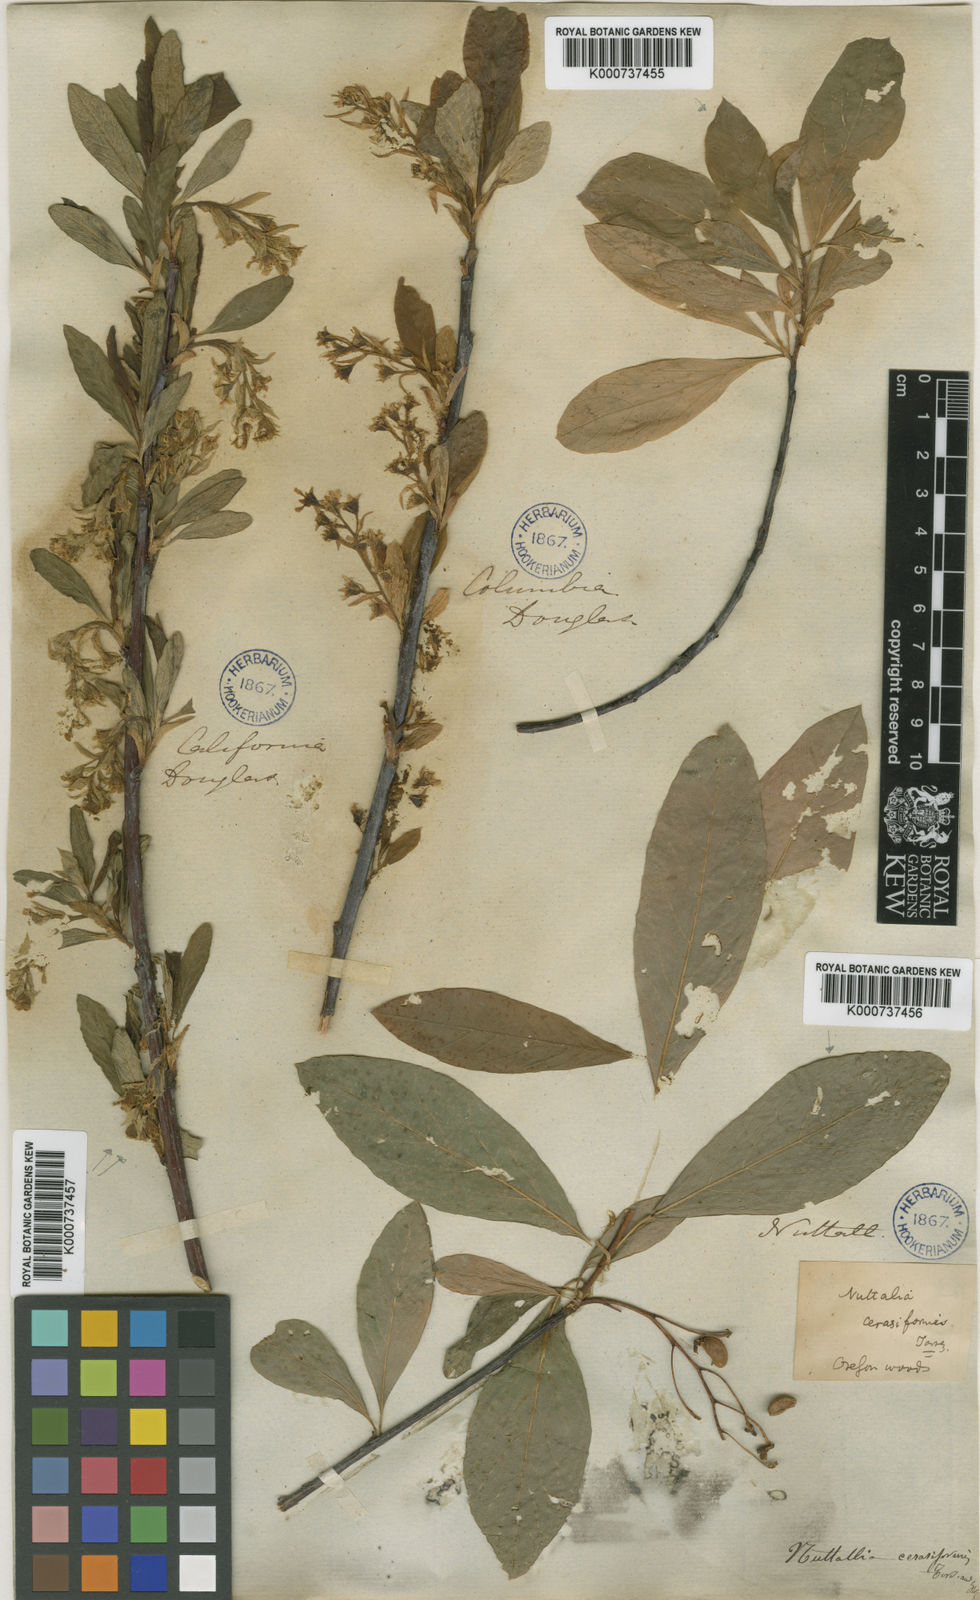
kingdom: Plantae
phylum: Tracheophyta
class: Magnoliopsida
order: Rosales
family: Rosaceae
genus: Spiraea
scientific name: Spiraea
